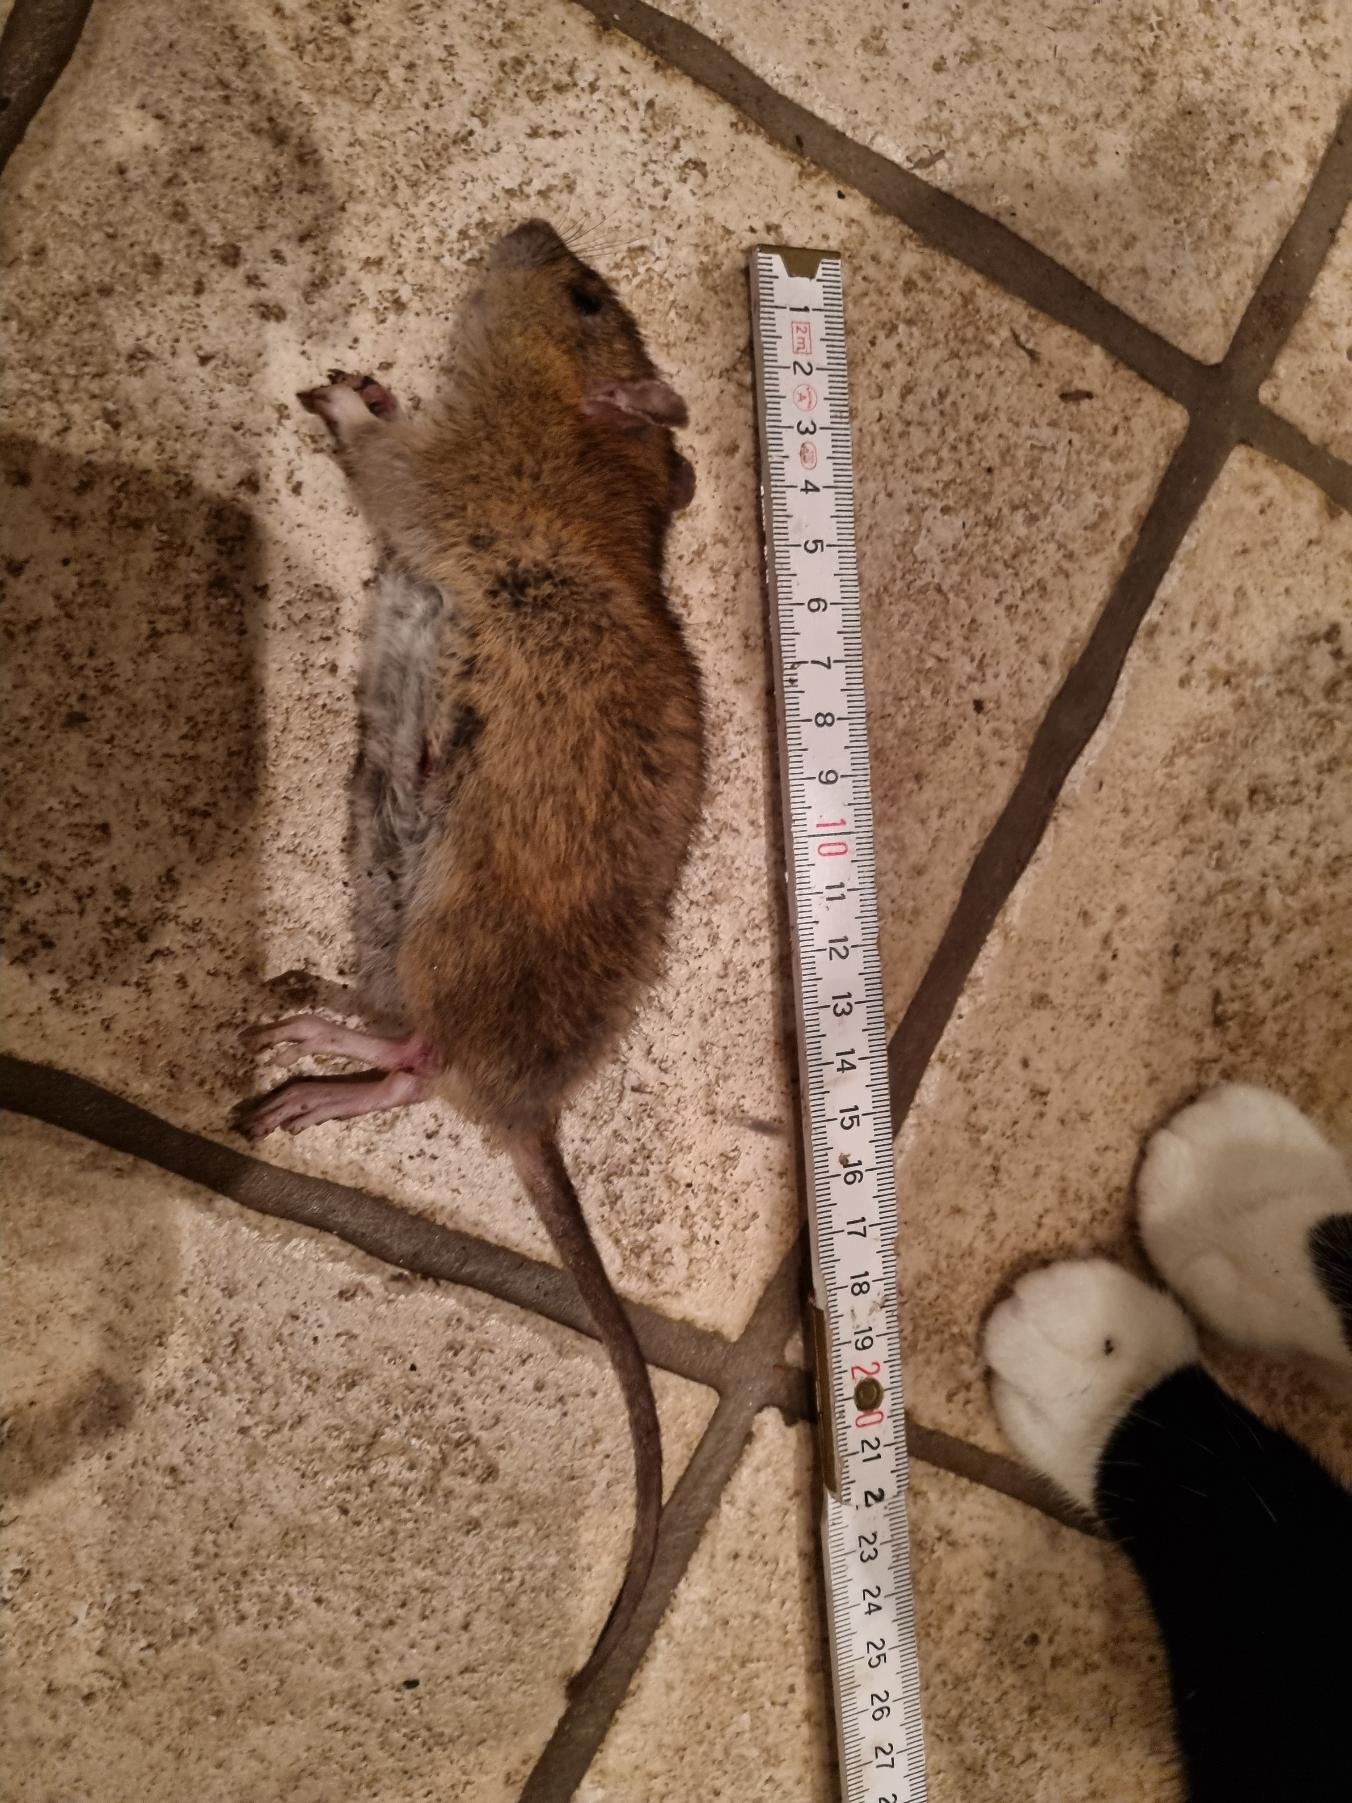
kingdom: Animalia
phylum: Chordata
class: Mammalia
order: Rodentia
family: Muridae
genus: Rattus
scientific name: Rattus norvegicus
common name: Brun rotte
